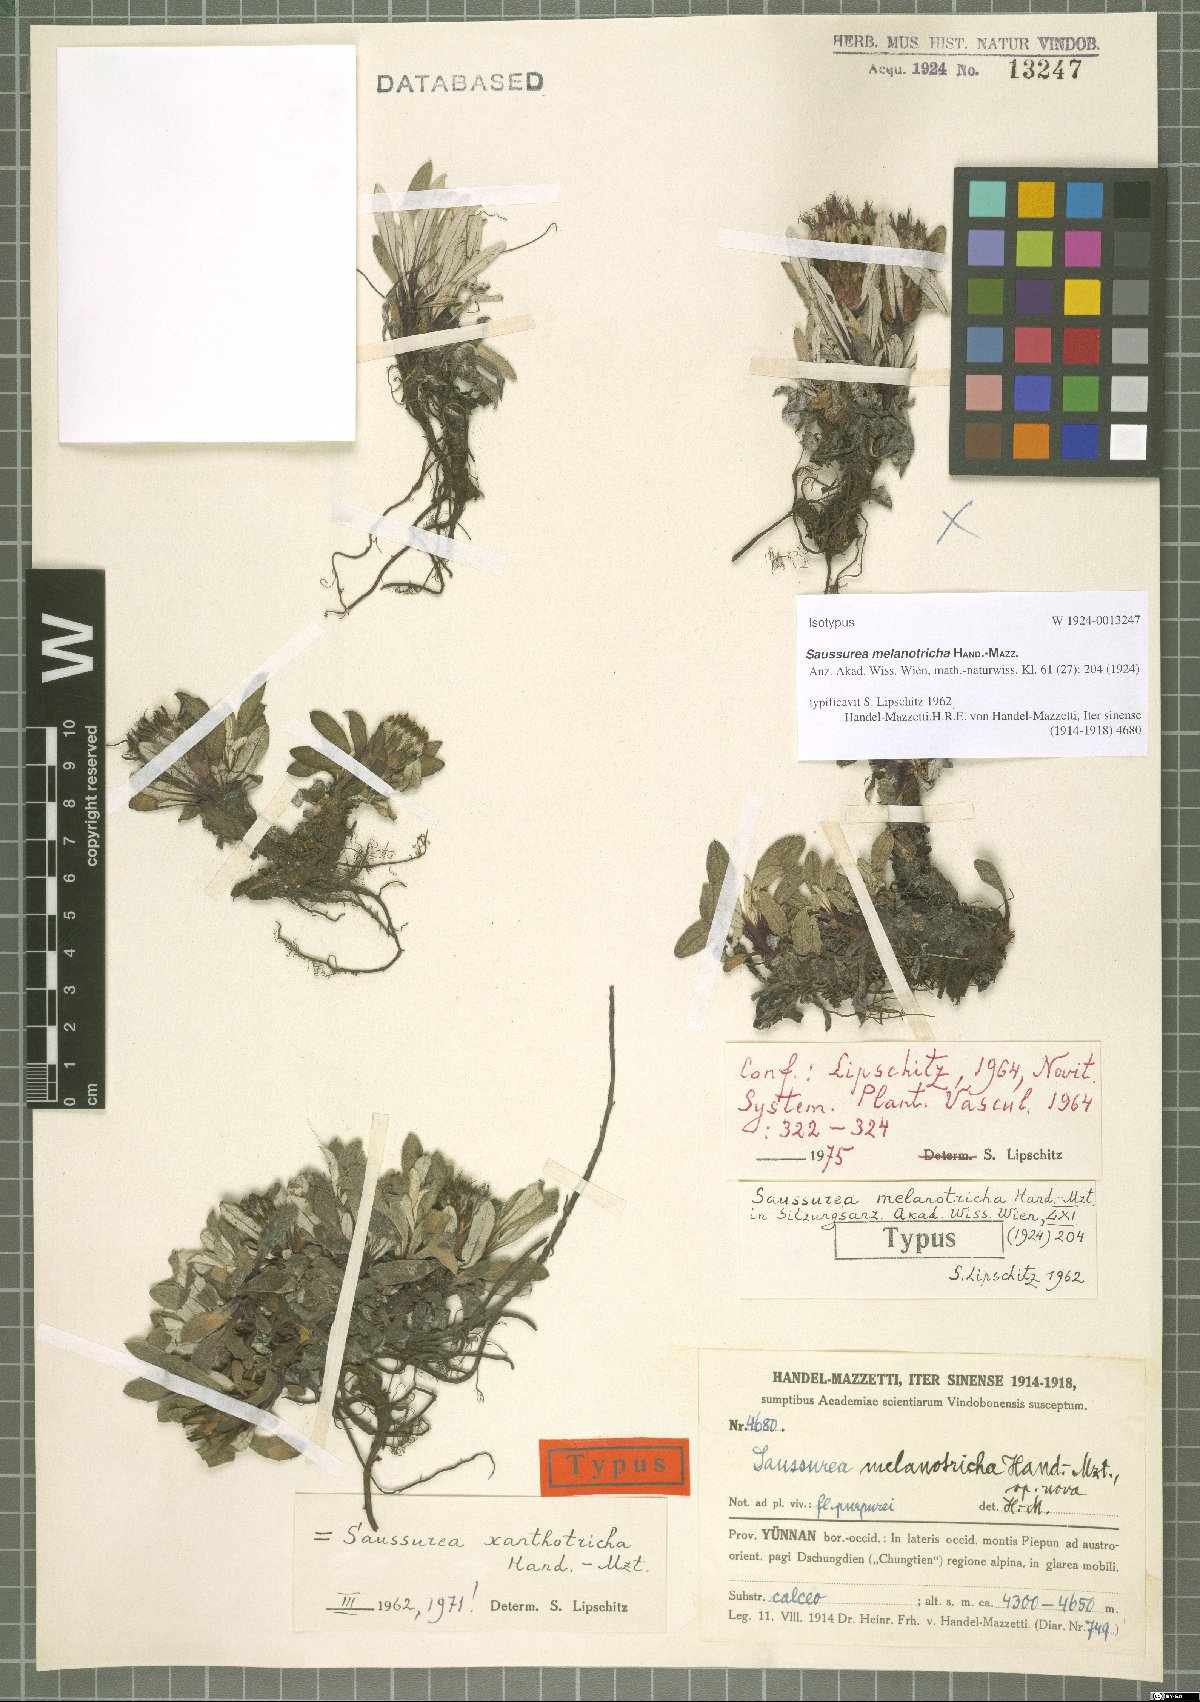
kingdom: Plantae
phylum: Tracheophyta
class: Magnoliopsida
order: Asterales
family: Asteraceae
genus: Saussurea
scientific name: Saussurea melanotricha
